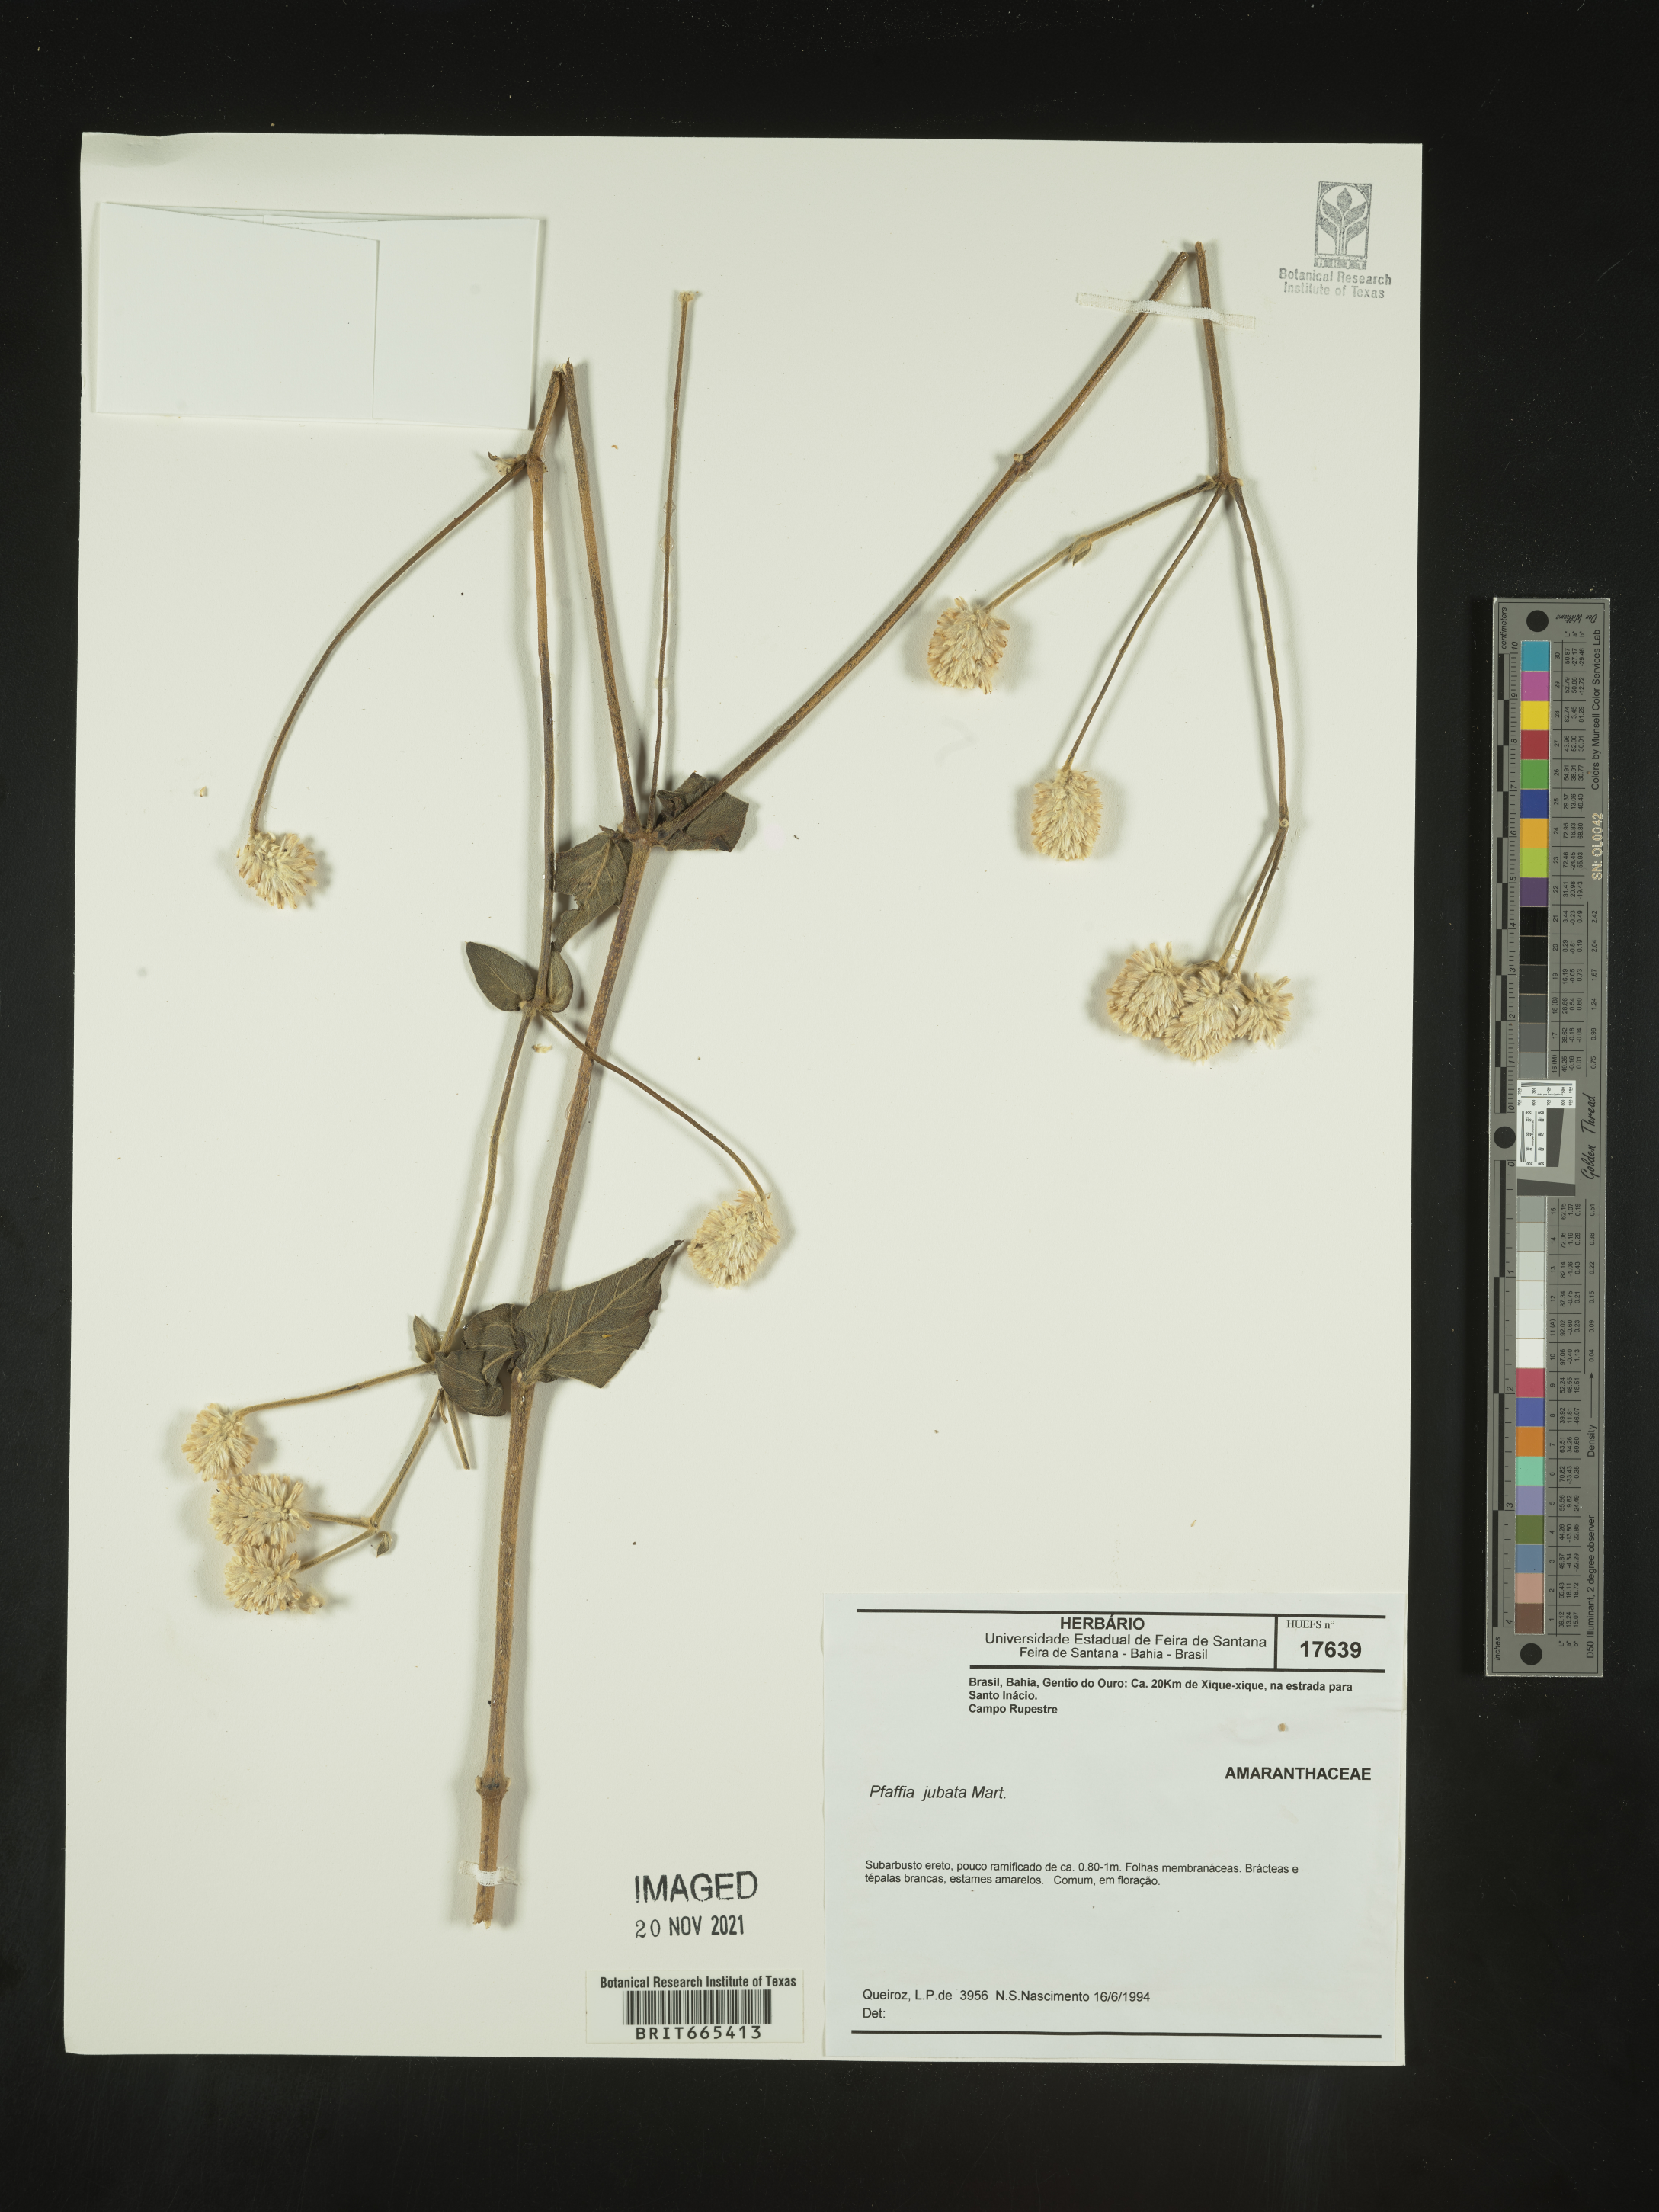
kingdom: Plantae
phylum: Tracheophyta
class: Magnoliopsida
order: Caryophyllales
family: Amaranthaceae
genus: Pfaffia
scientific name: Pfaffia
